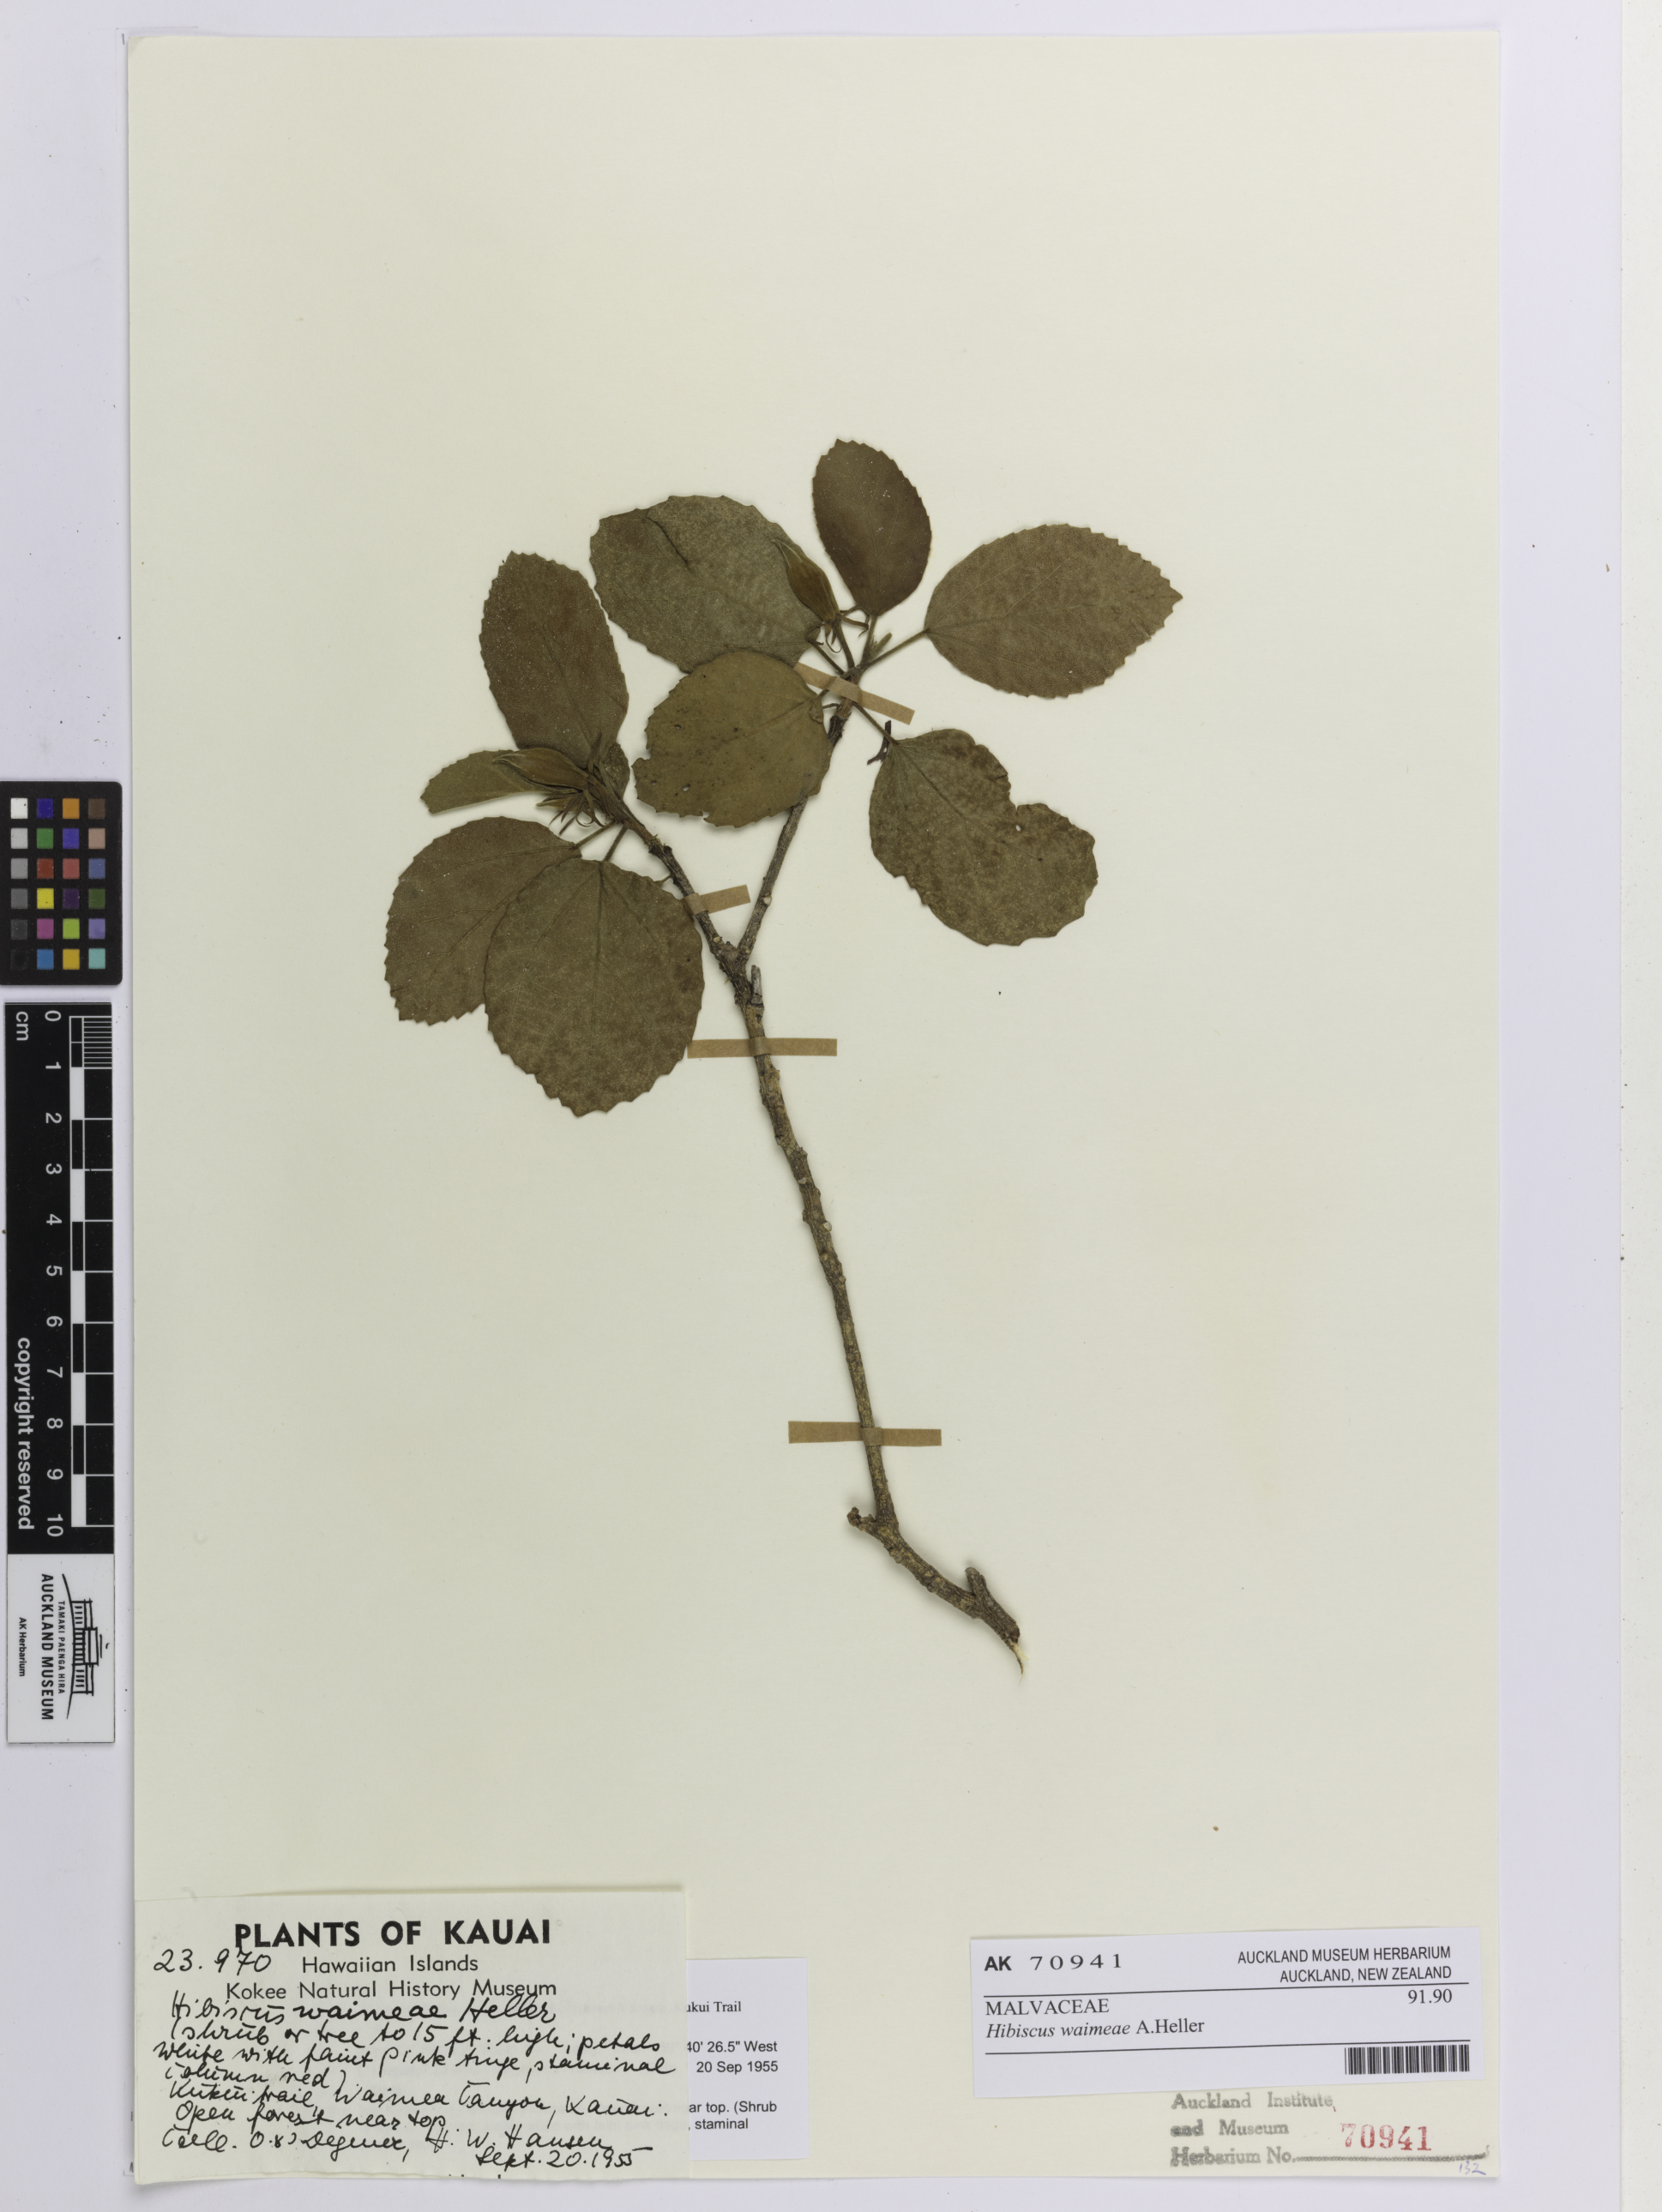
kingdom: Plantae
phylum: Tracheophyta
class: Magnoliopsida
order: Malvales
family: Malvaceae
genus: Hibiscus
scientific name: Hibiscus waimeae
